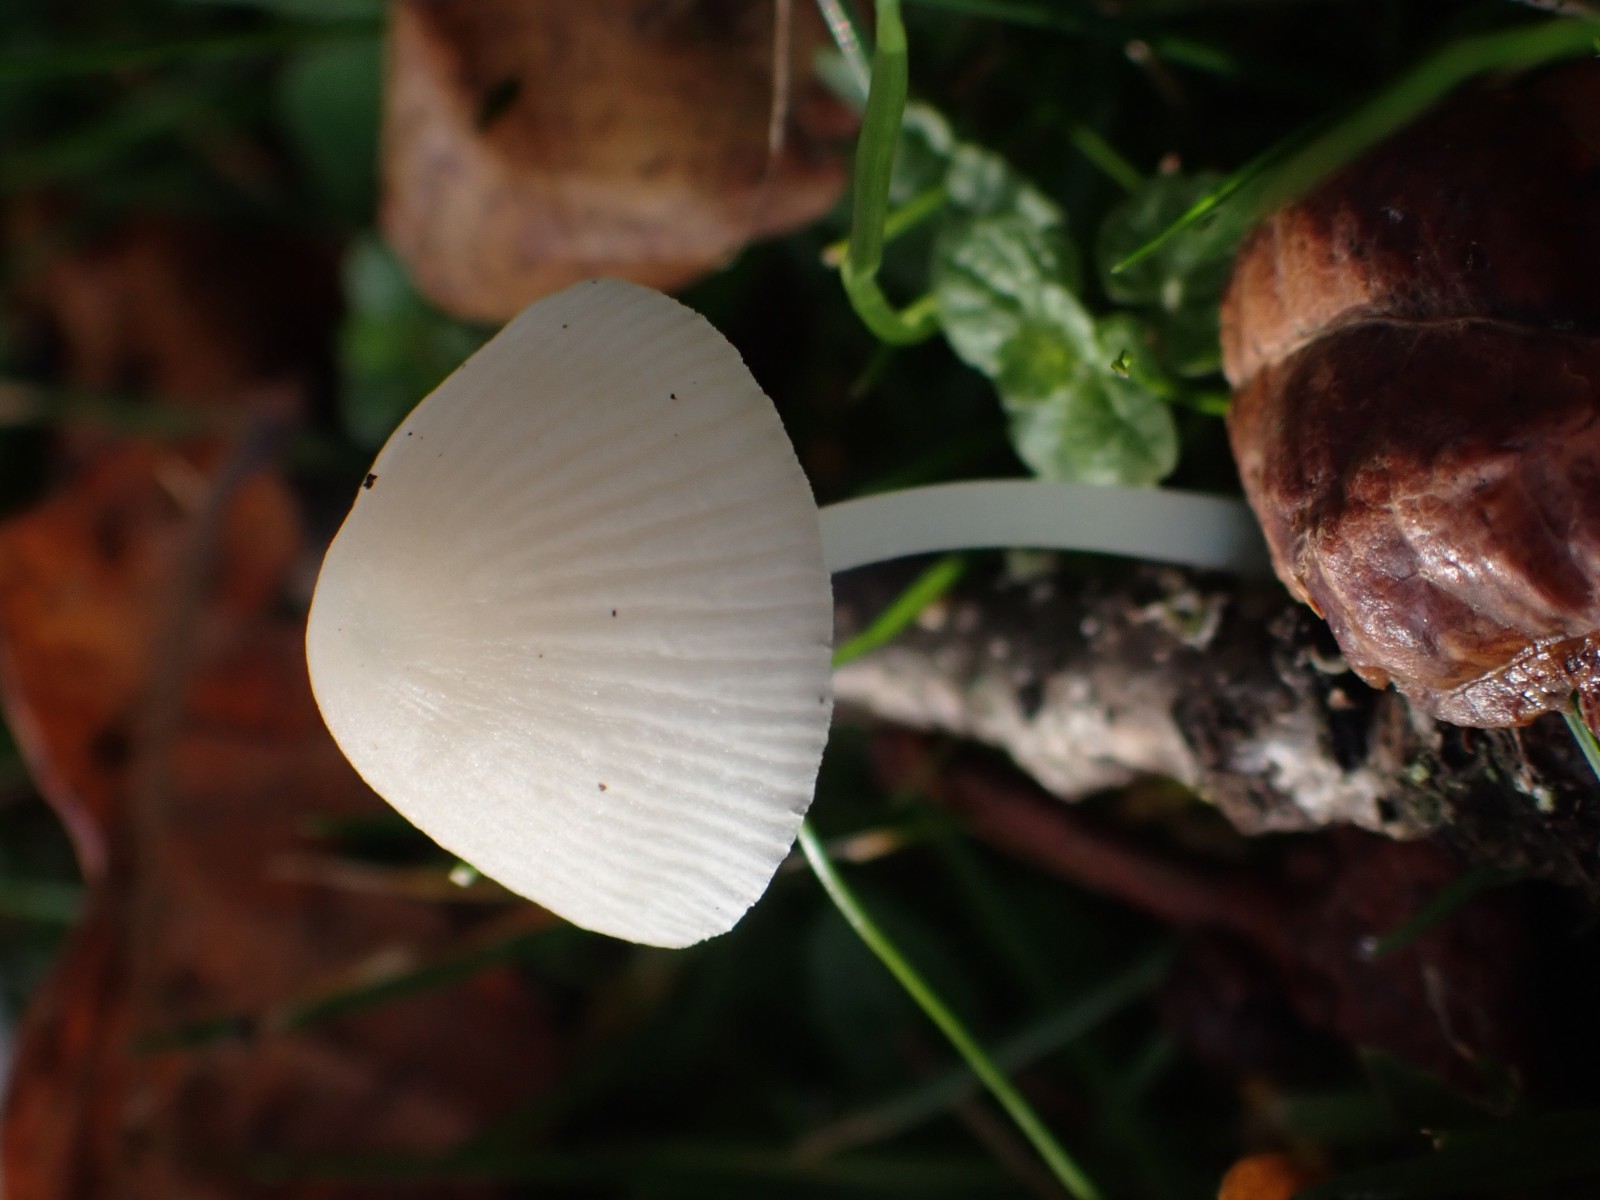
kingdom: Fungi
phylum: Basidiomycota
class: Agaricomycetes
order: Agaricales
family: Mycenaceae
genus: Atheniella
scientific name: Atheniella flavoalba
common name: gulhvid huesvamp
